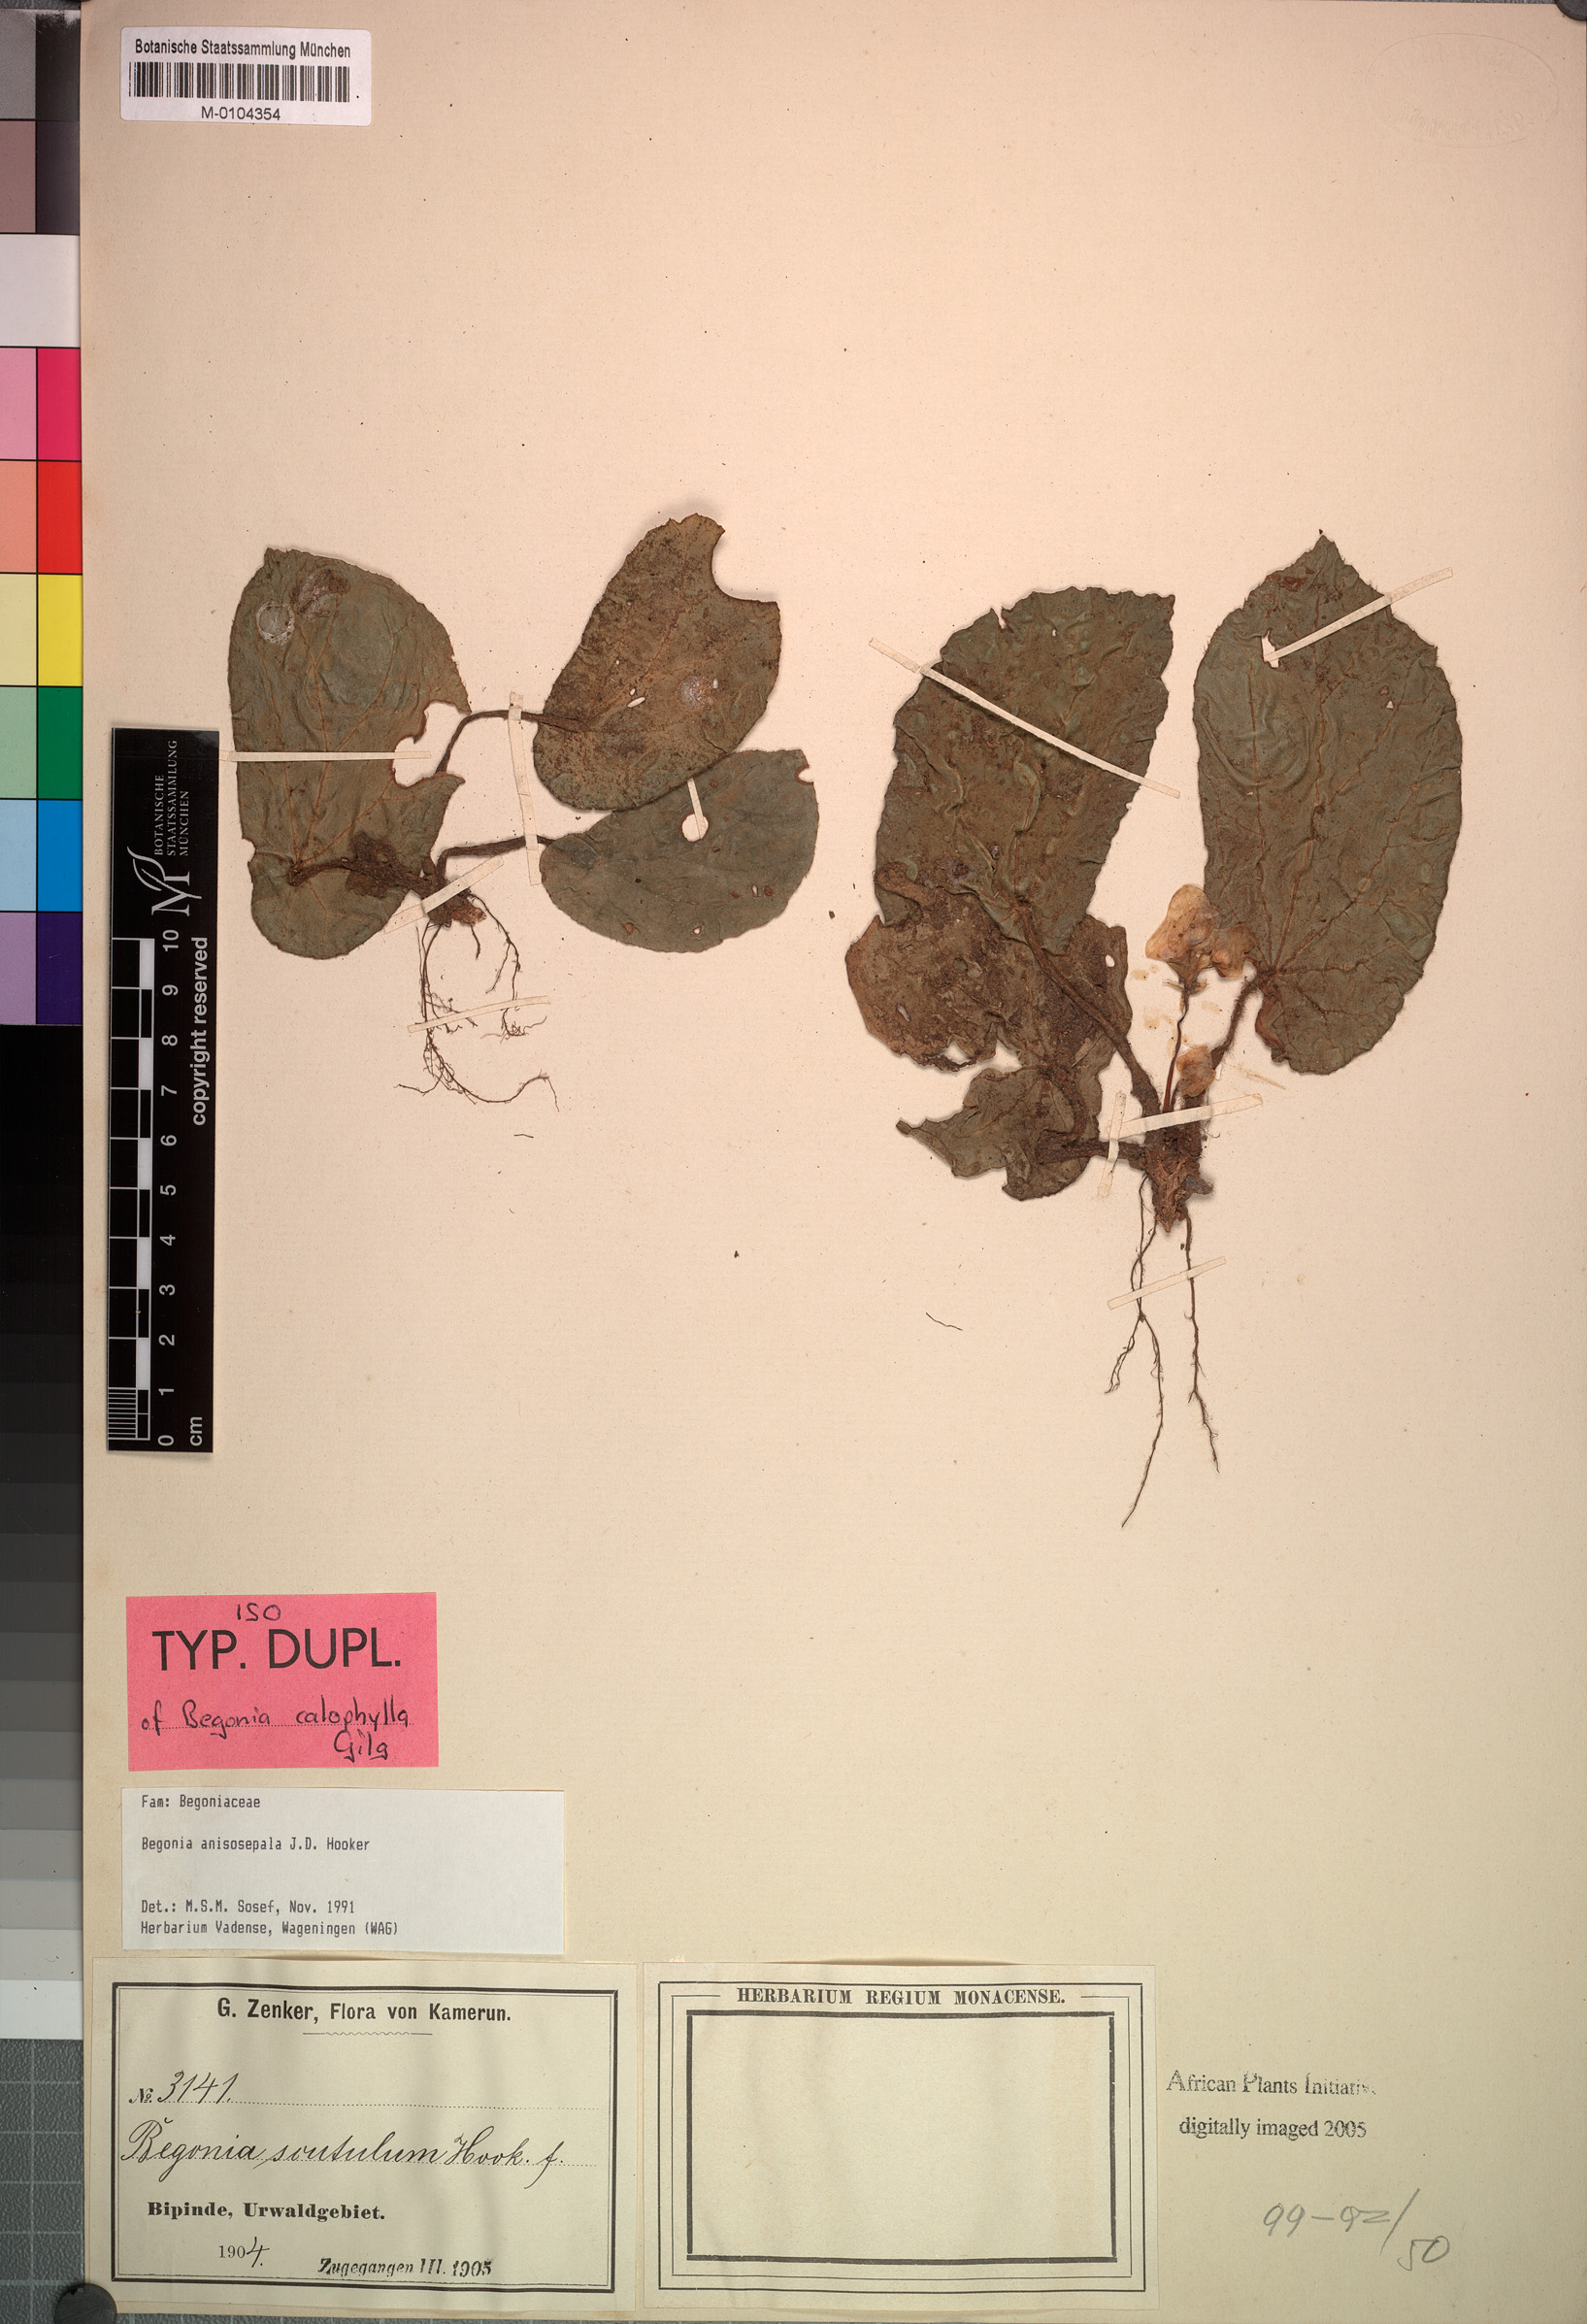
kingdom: Plantae
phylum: Tracheophyta
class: Magnoliopsida
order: Cucurbitales
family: Begoniaceae
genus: Begonia
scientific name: Begonia anisosepala
